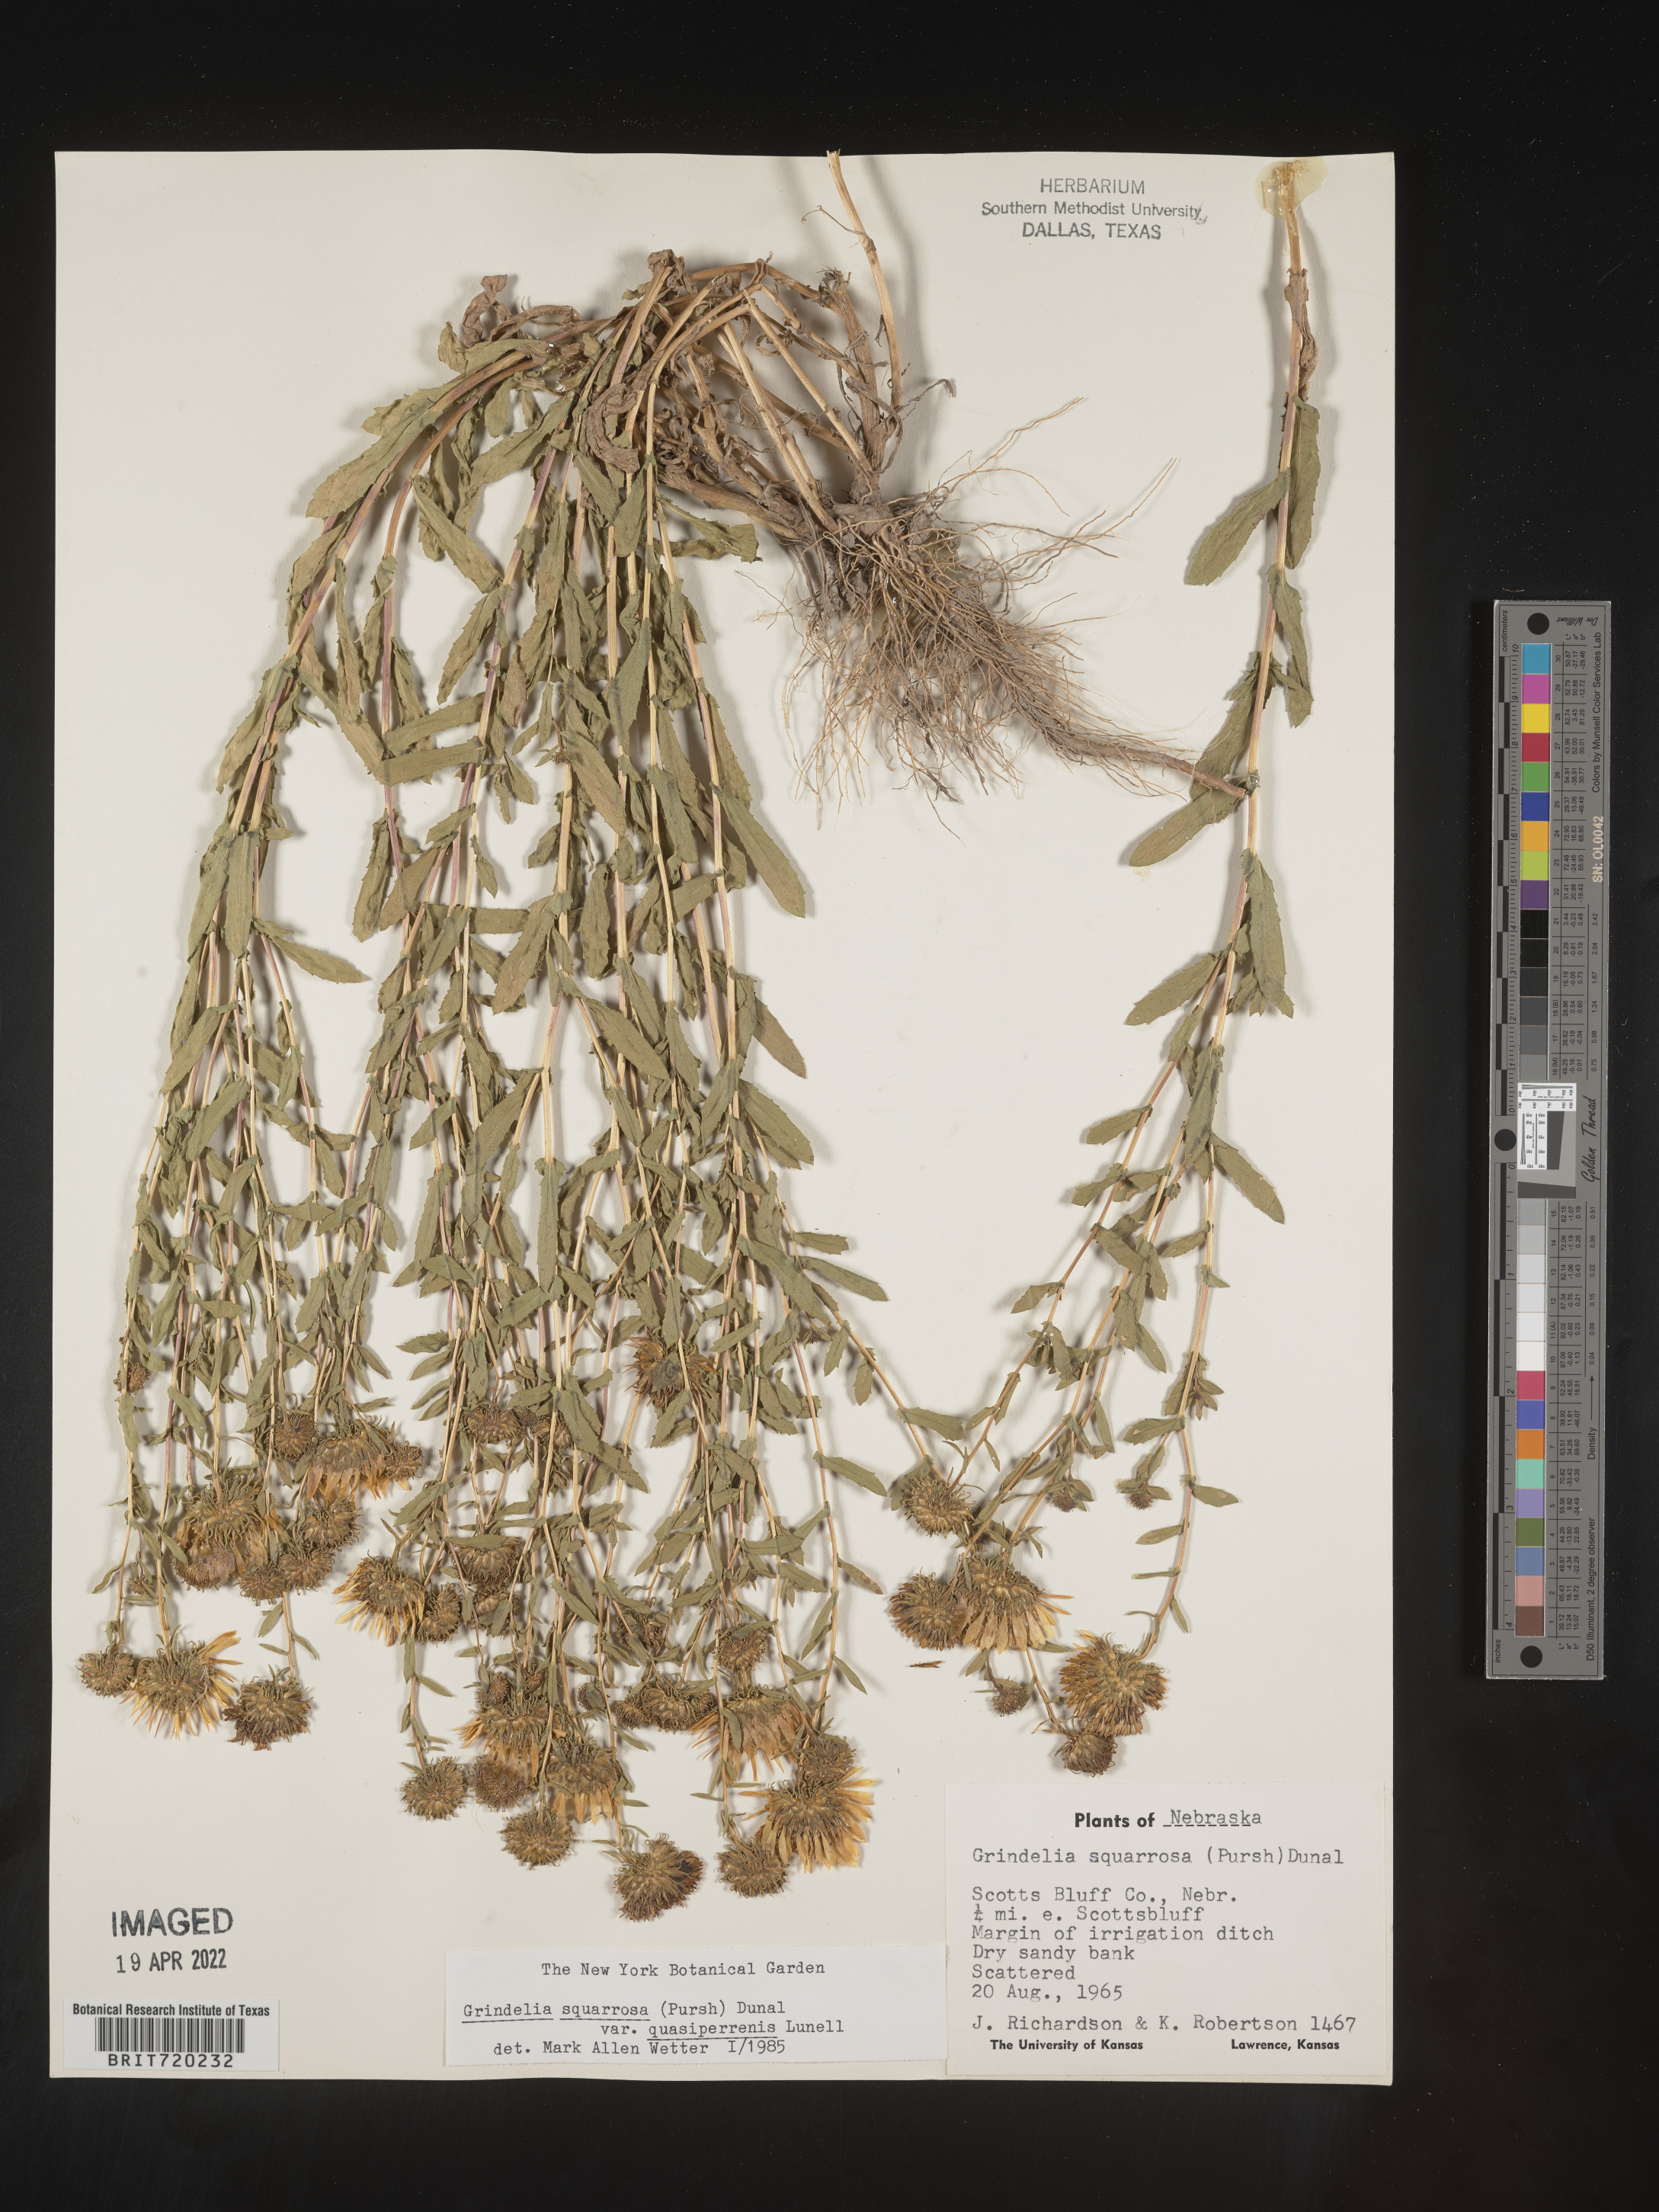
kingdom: Plantae
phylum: Tracheophyta
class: Magnoliopsida
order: Asterales
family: Asteraceae
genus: Grindelia
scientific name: Grindelia squarrosa
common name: Curly-cup gumweed
